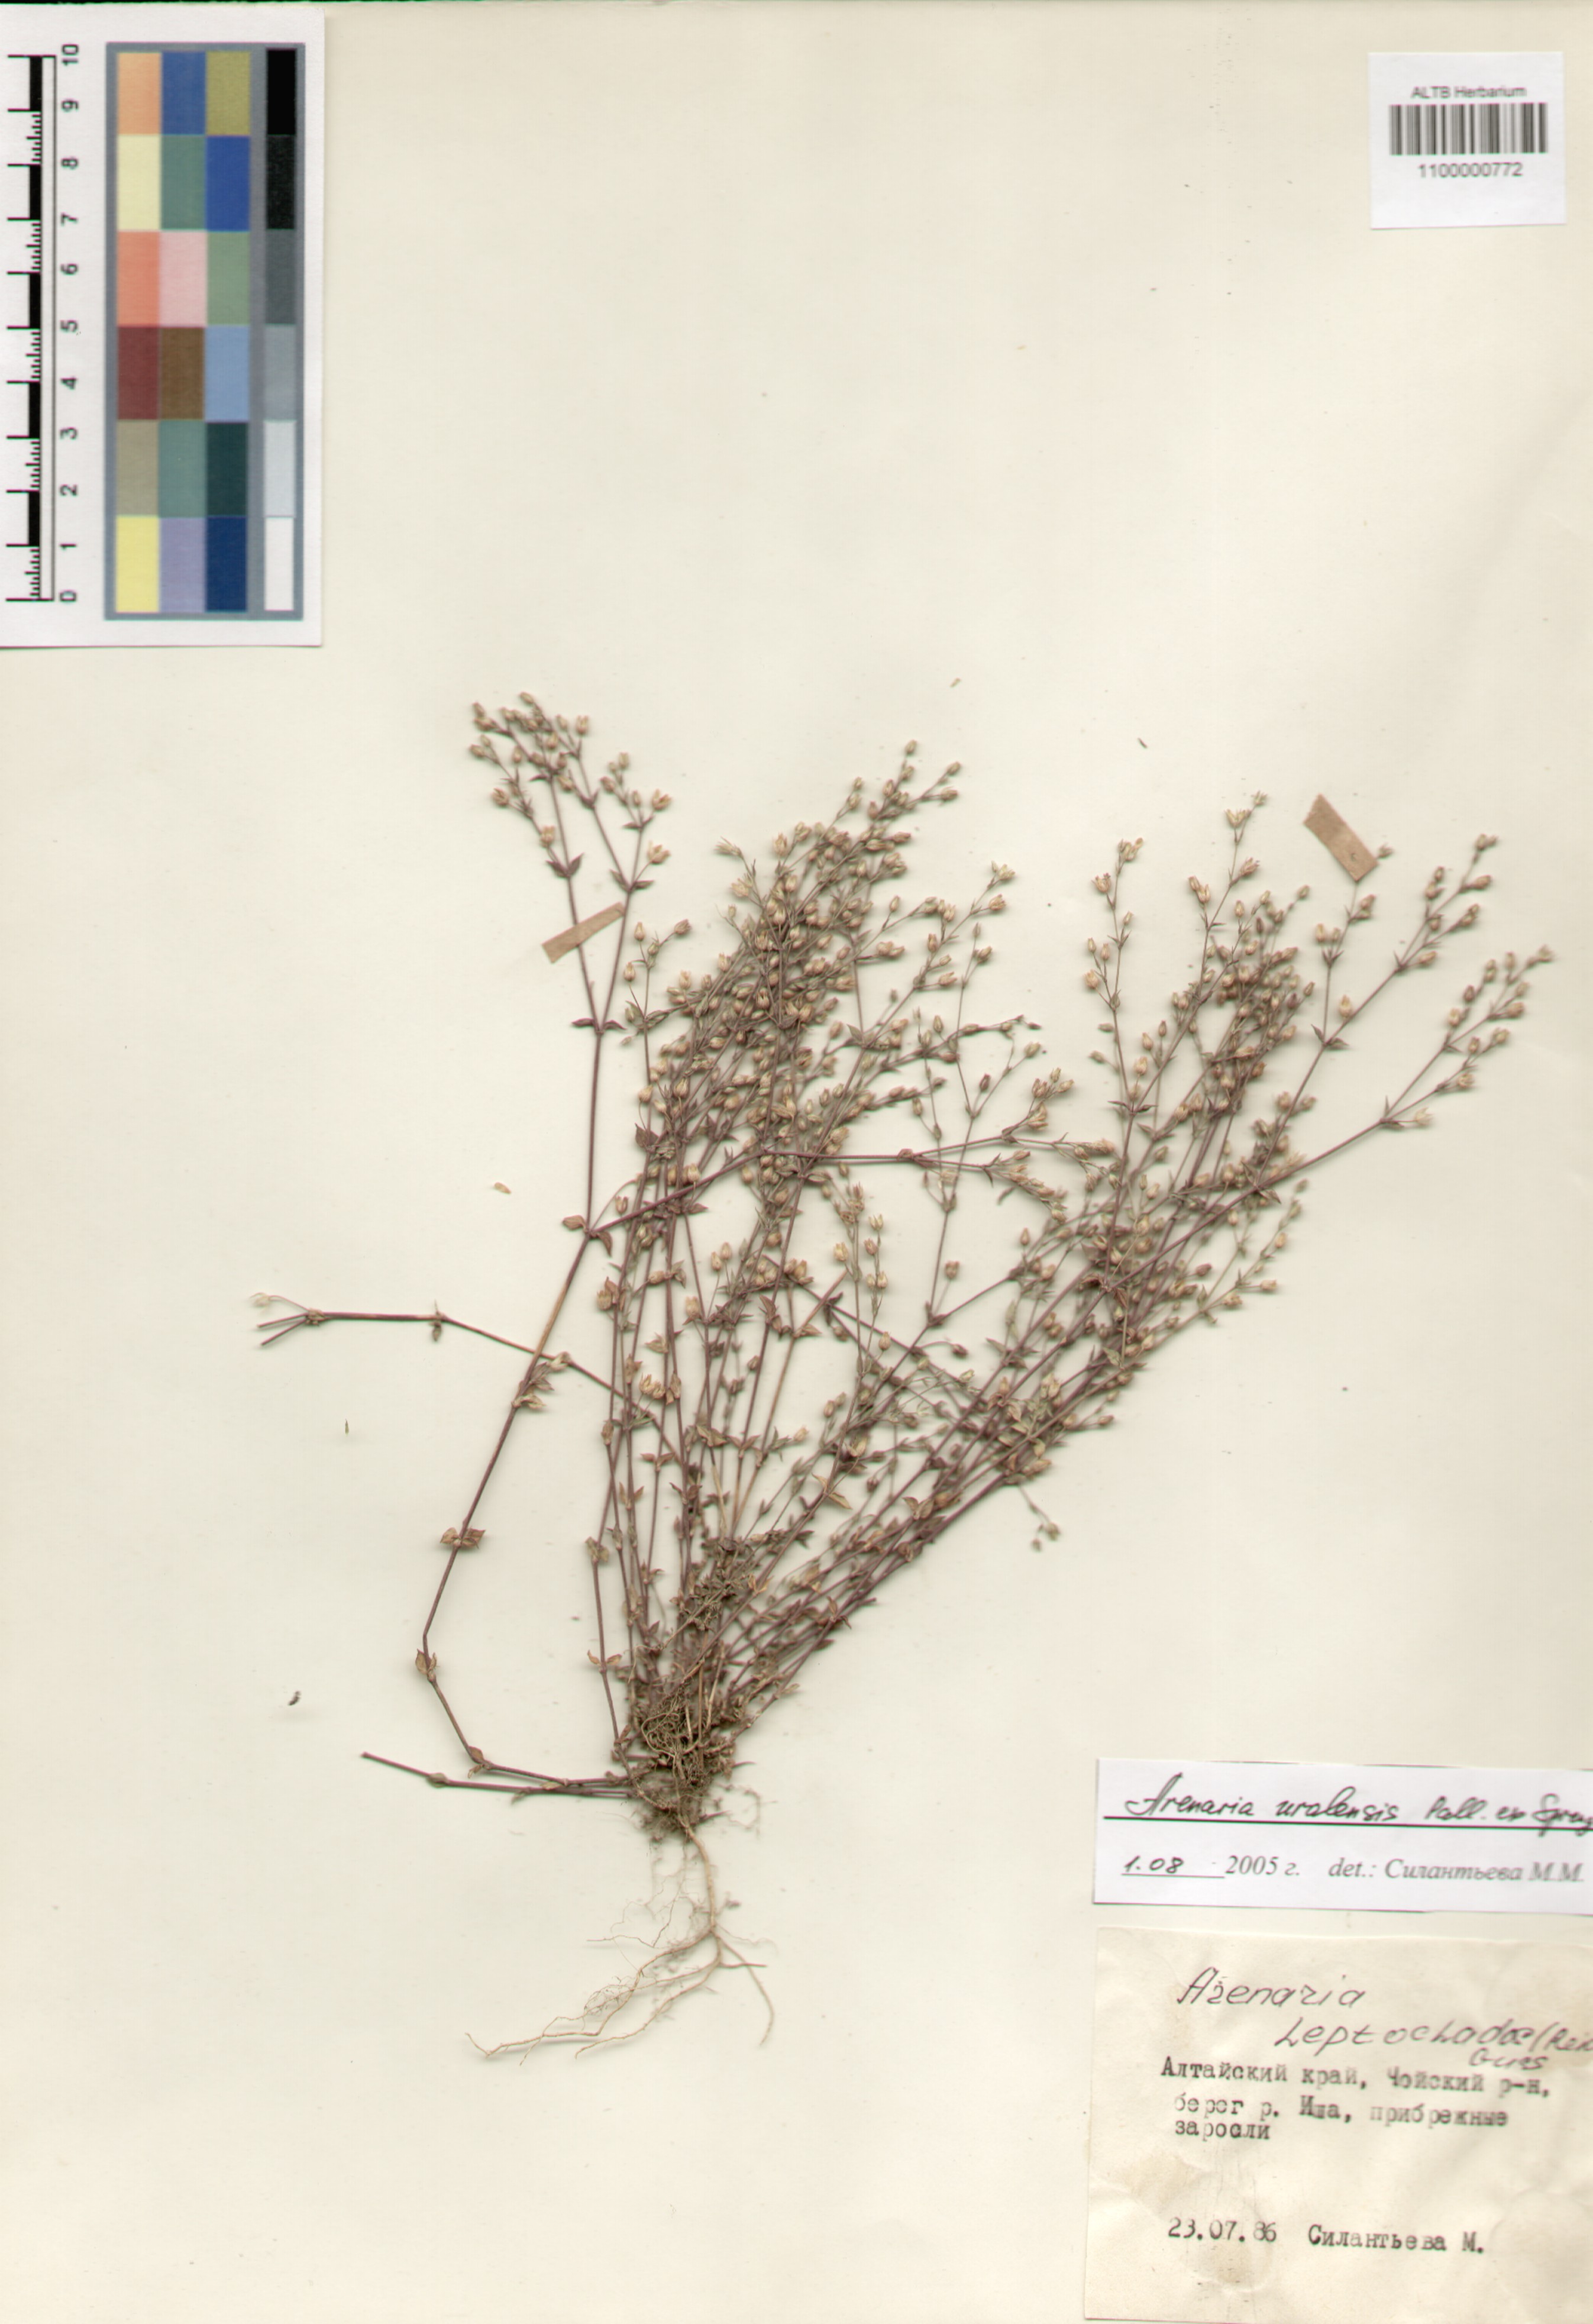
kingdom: Plantae
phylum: Tracheophyta
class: Magnoliopsida
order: Caryophyllales
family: Caryophyllaceae
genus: Arenaria
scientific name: Arenaria serpyllifolia
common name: Thyme-leaved sandwort
